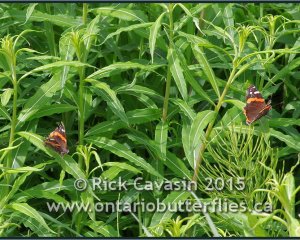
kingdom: Animalia
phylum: Arthropoda
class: Insecta
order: Lepidoptera
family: Nymphalidae
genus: Vanessa
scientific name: Vanessa atalanta
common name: Red Admiral
